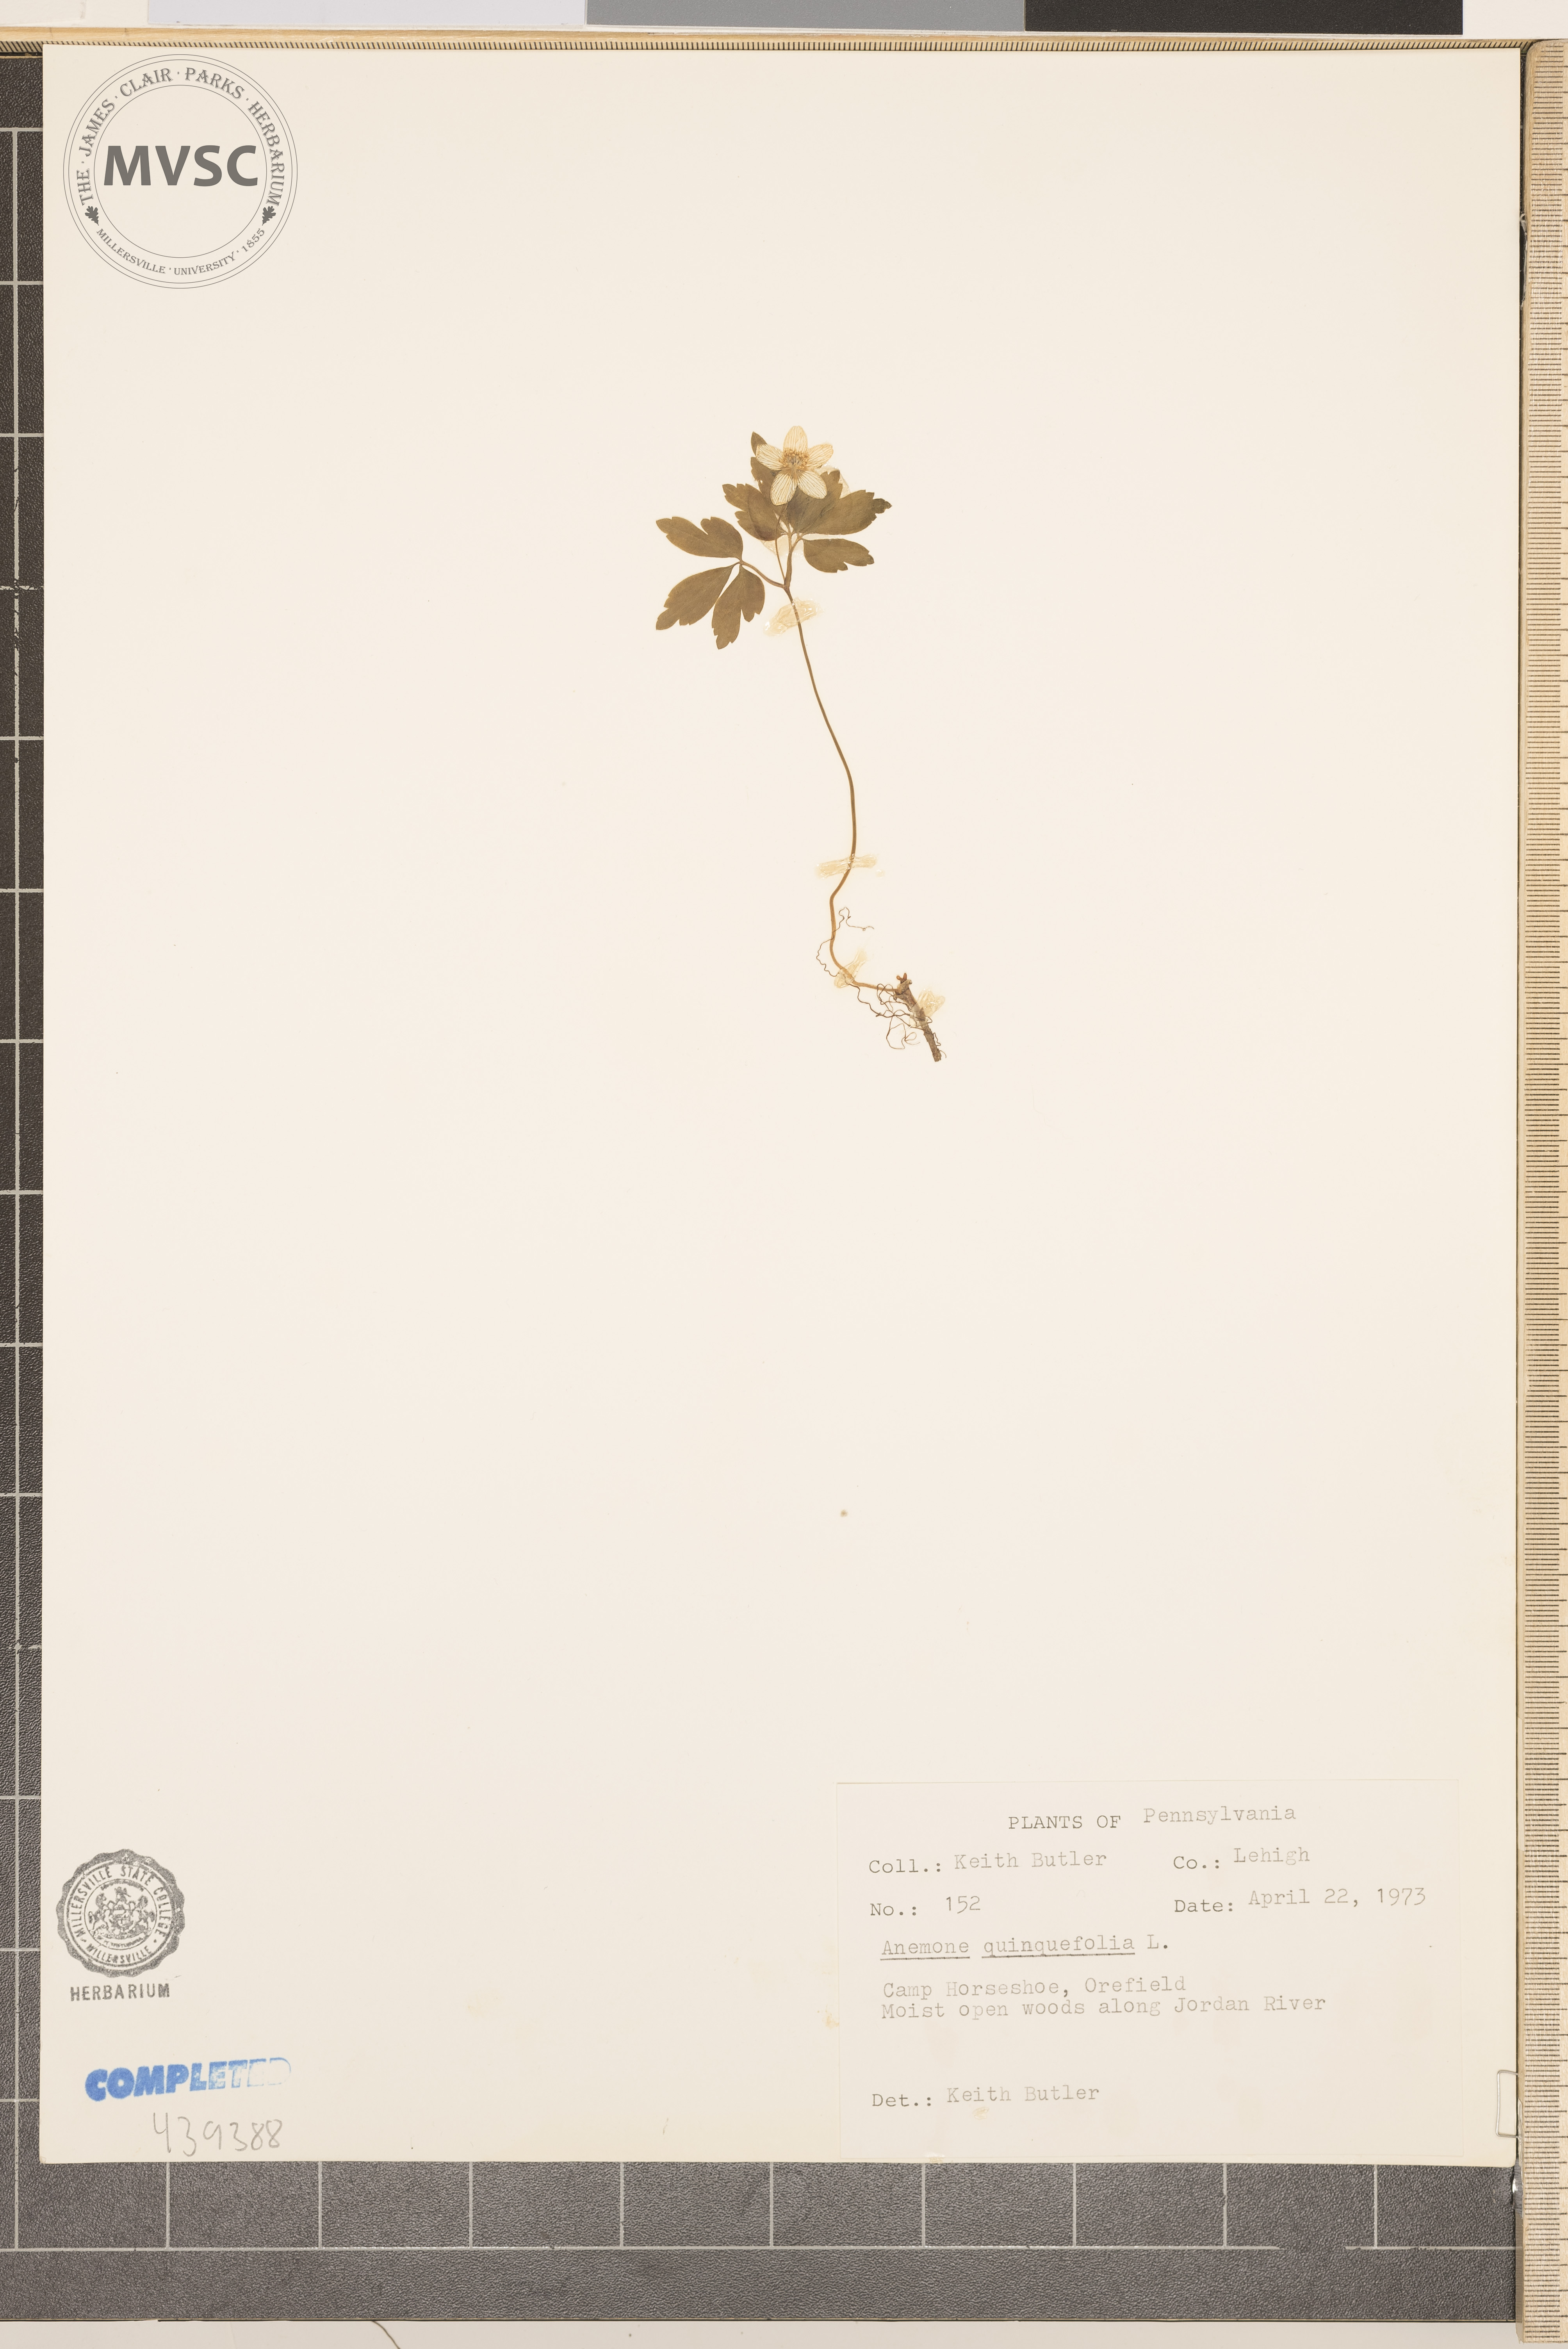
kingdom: Plantae
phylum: Tracheophyta
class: Magnoliopsida
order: Ranunculales
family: Ranunculaceae
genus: Anemone
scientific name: Anemone quinquefolia
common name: Wood anemone
